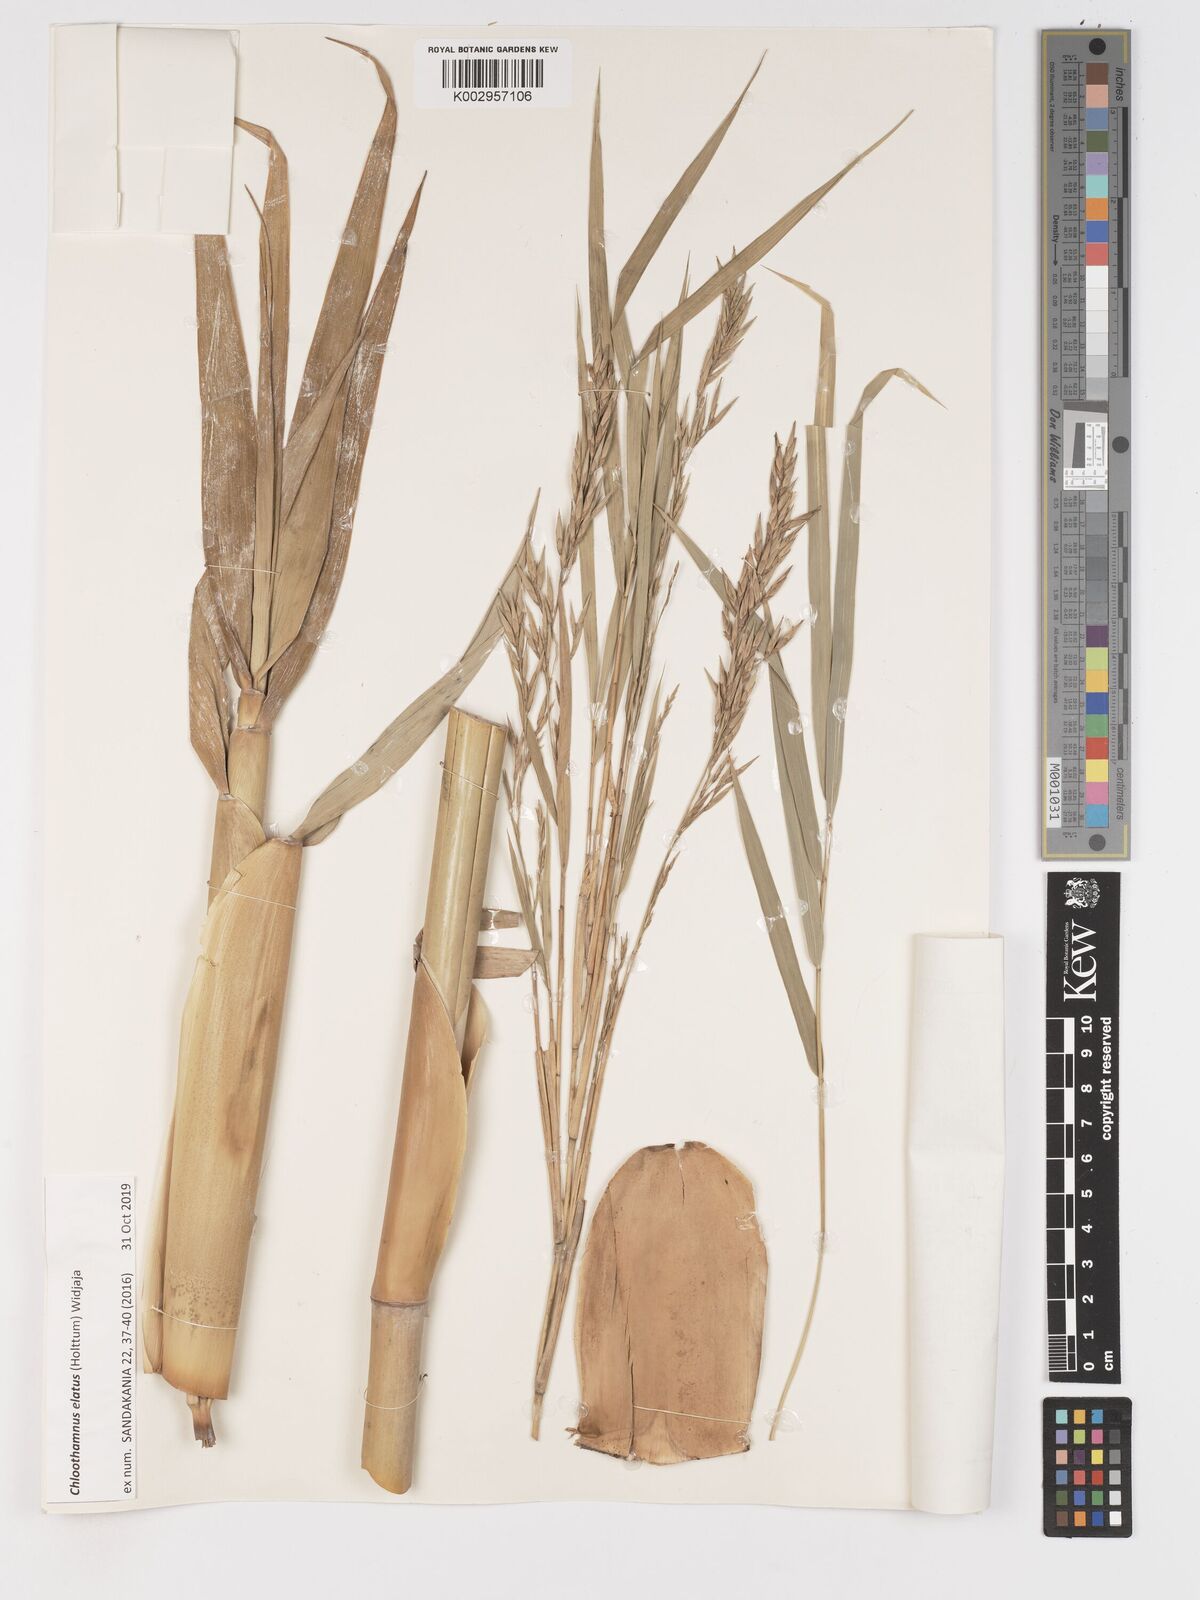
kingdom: Plantae
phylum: Tracheophyta
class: Liliopsida
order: Poales
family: Poaceae
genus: Chloothamnus
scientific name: Chloothamnus
